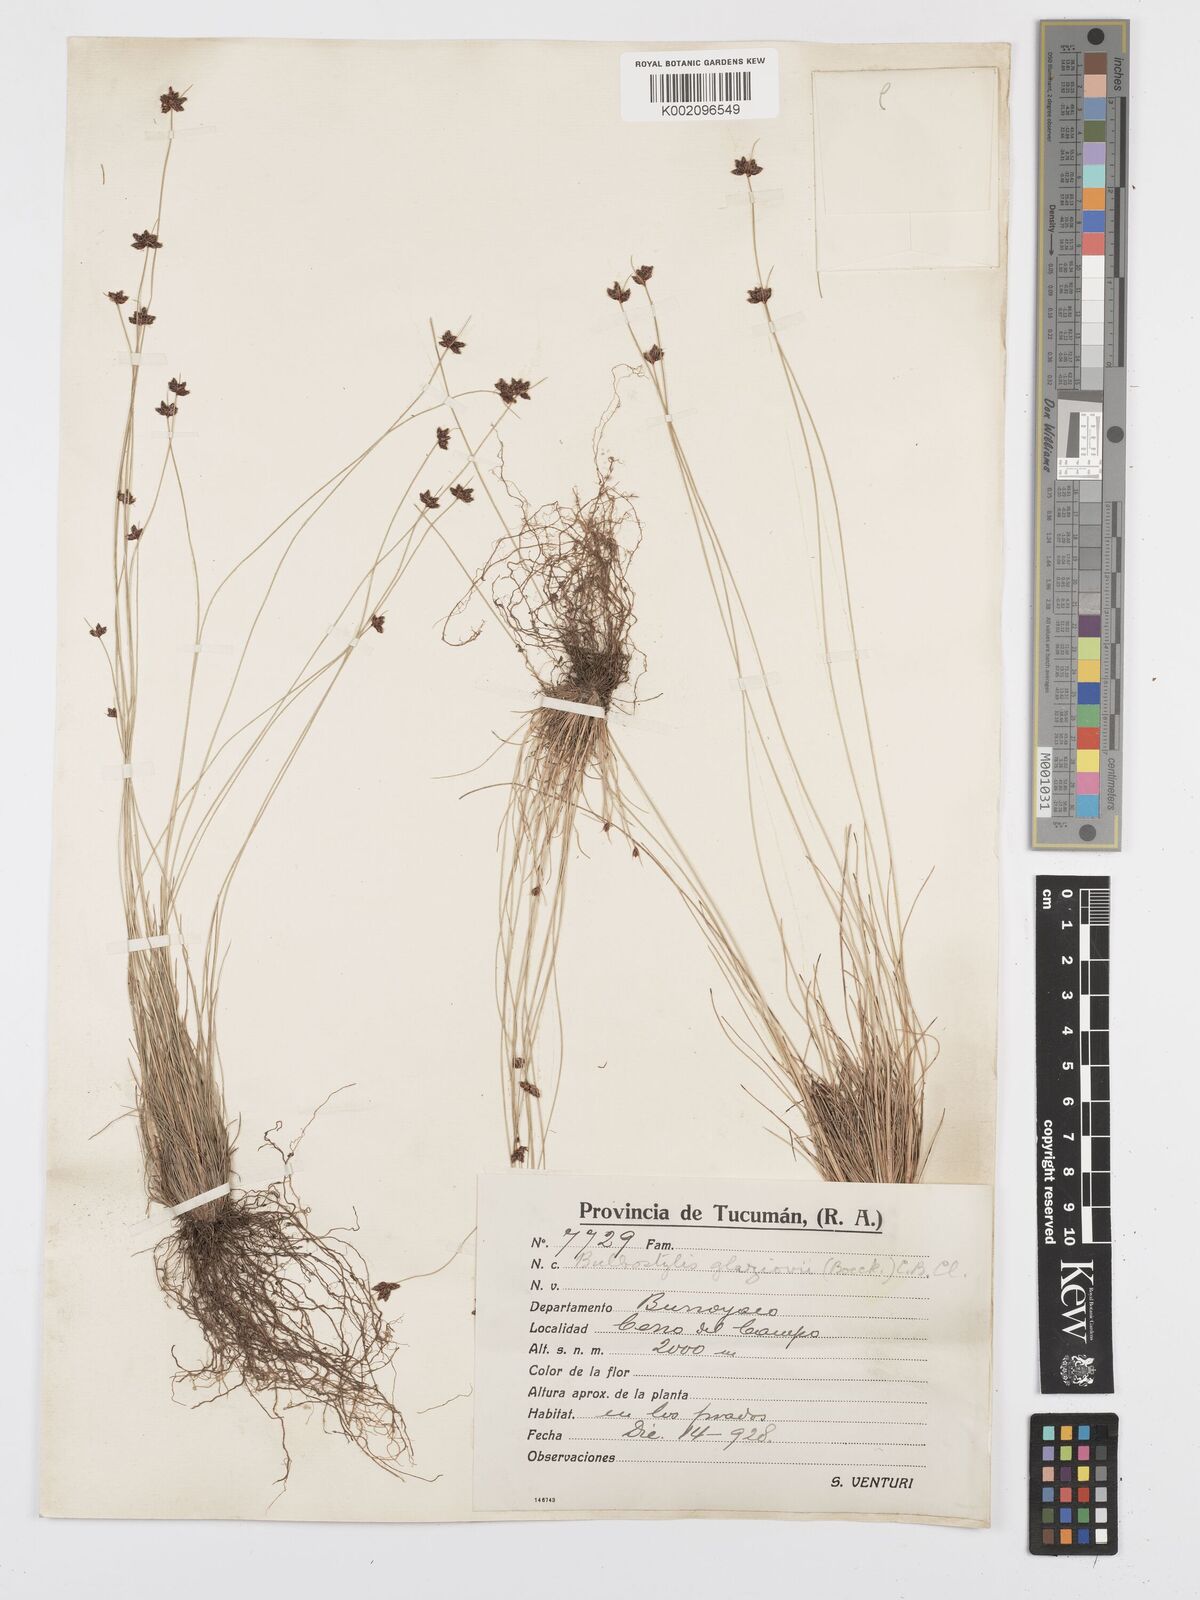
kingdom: Plantae
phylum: Tracheophyta
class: Liliopsida
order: Poales
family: Cyperaceae
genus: Bulbostylis
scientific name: Bulbostylis juncoides
